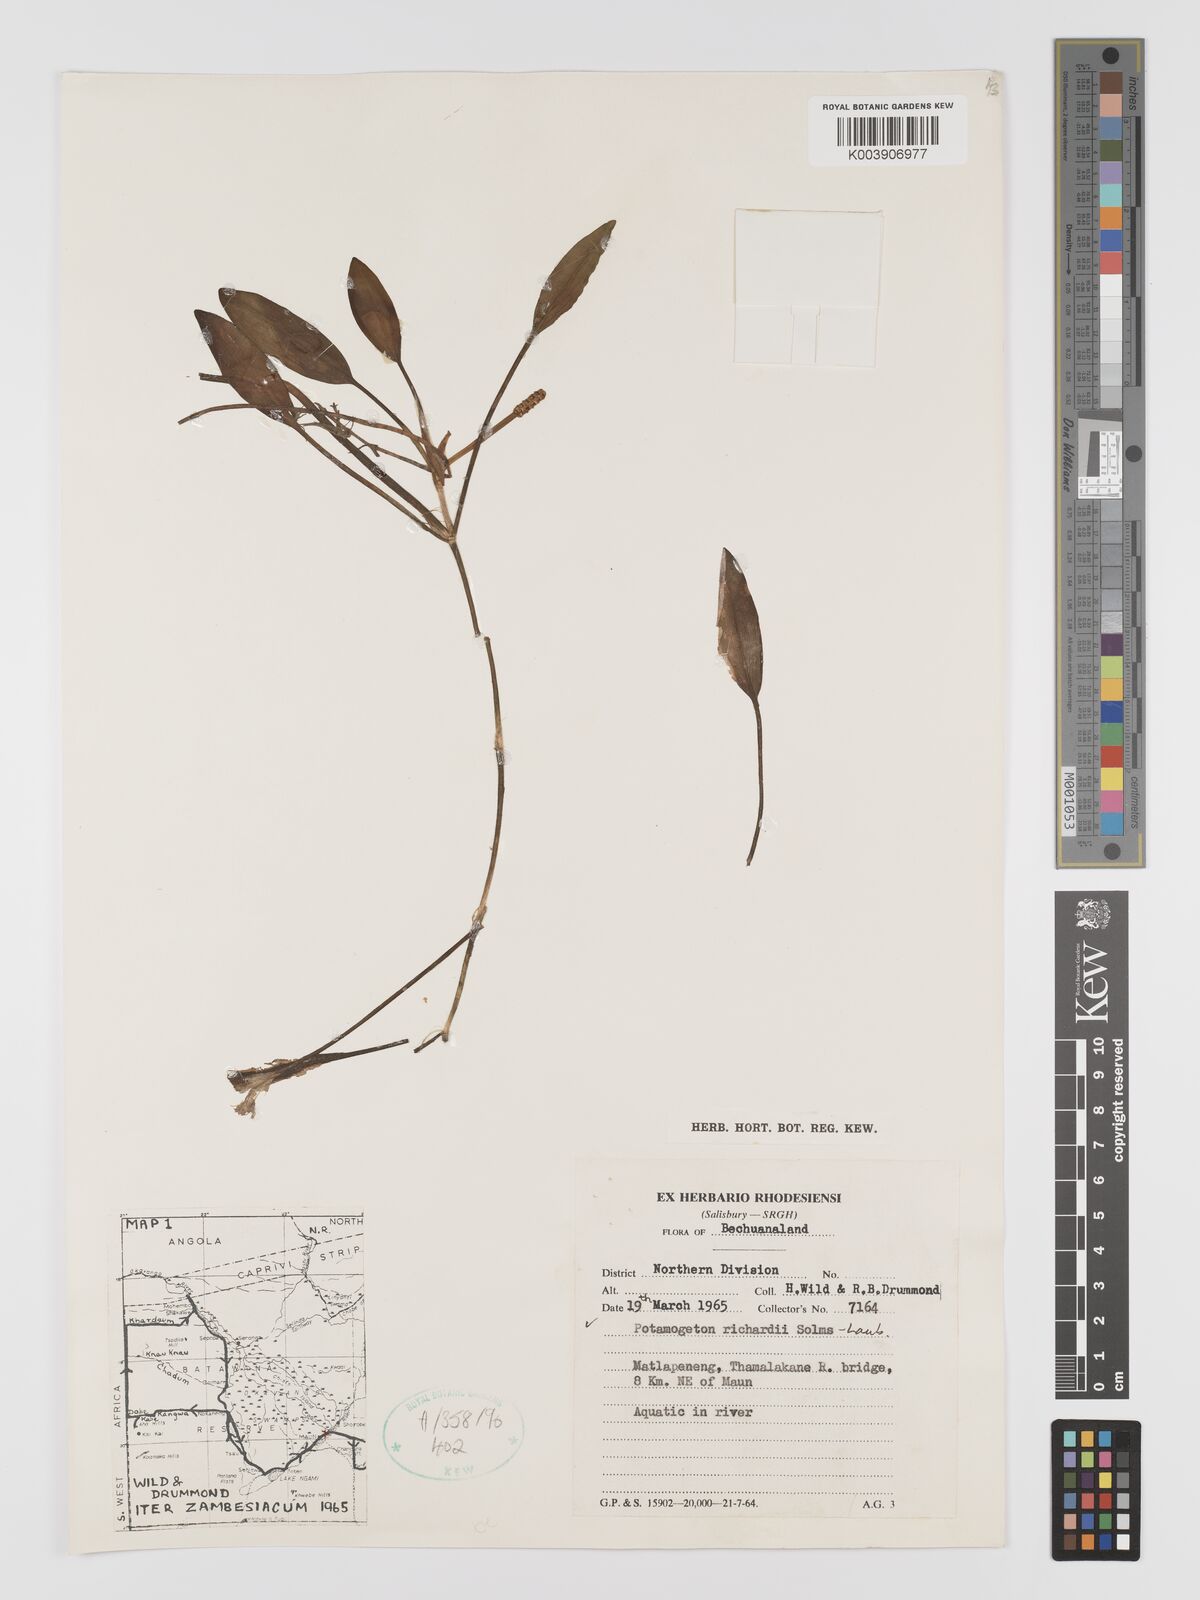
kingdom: Plantae
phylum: Tracheophyta
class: Liliopsida
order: Alismatales
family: Potamogetonaceae
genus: Potamogeton
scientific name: Potamogeton nodosus
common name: Loddon pondweed
